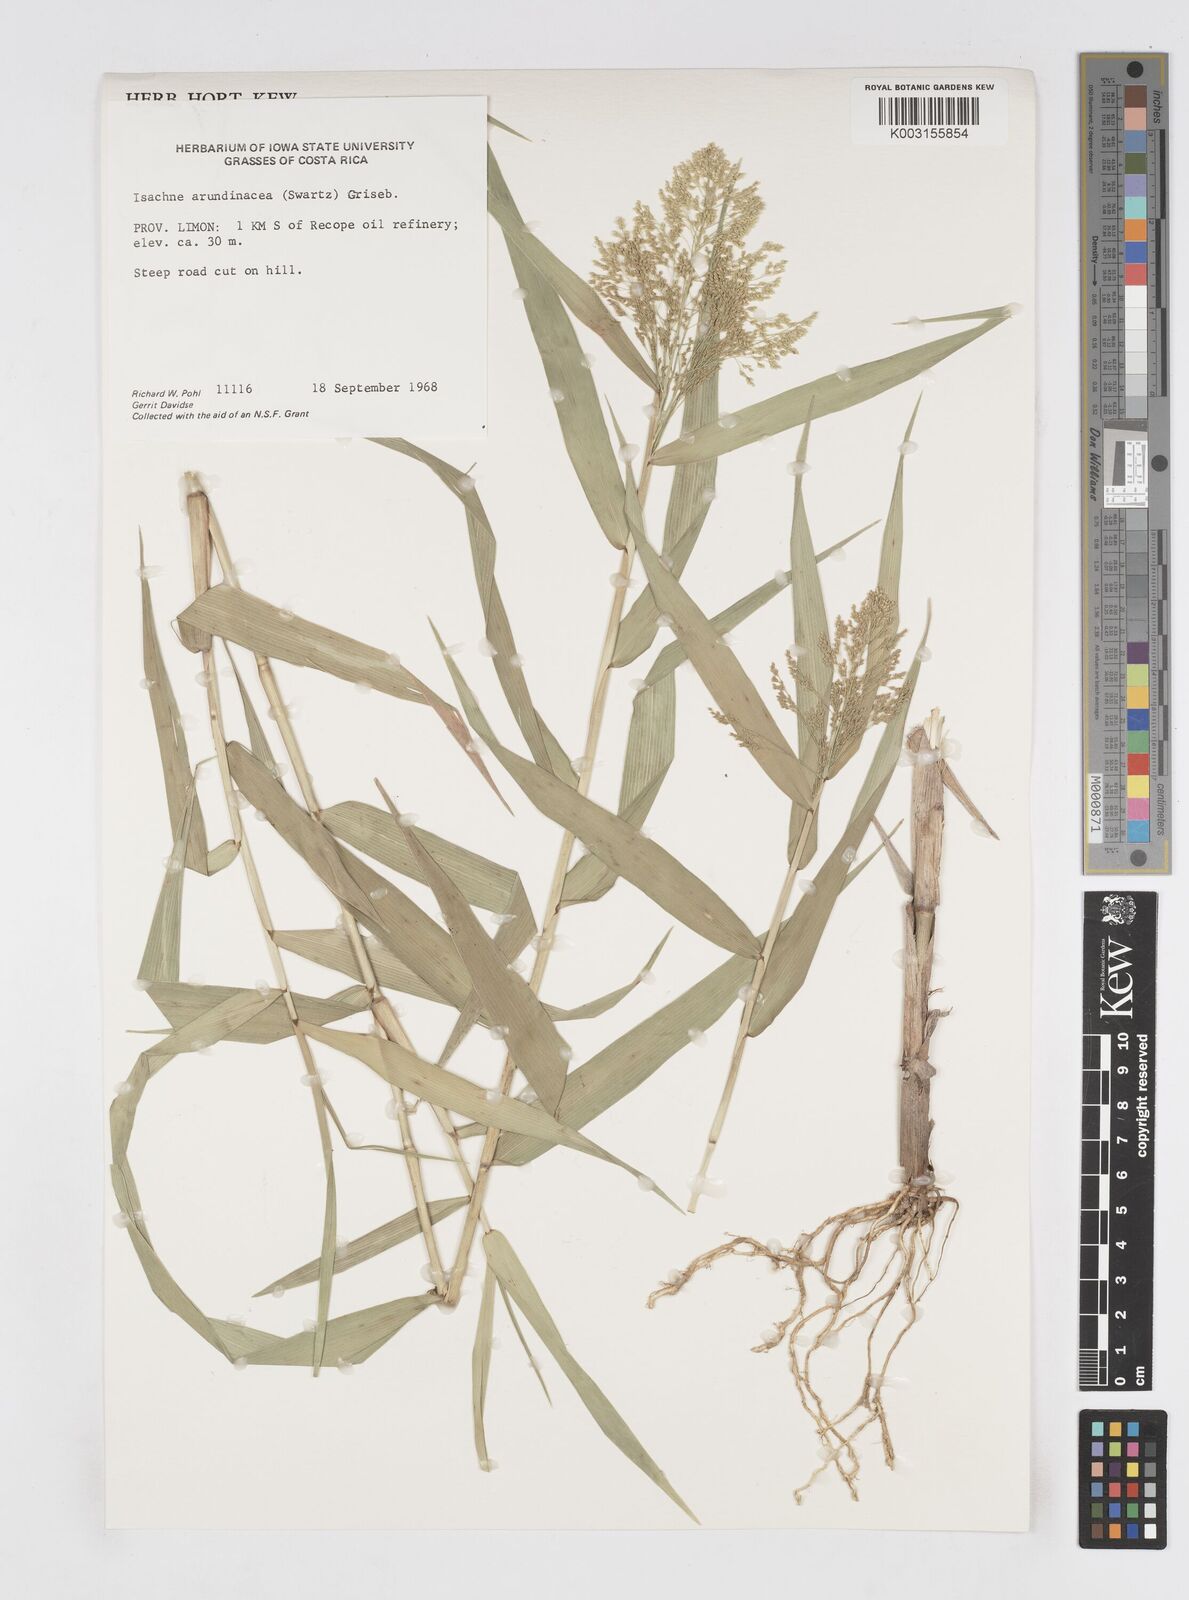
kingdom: Plantae
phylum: Tracheophyta
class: Liliopsida
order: Poales
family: Poaceae
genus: Isachne
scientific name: Isachne arundinacea
